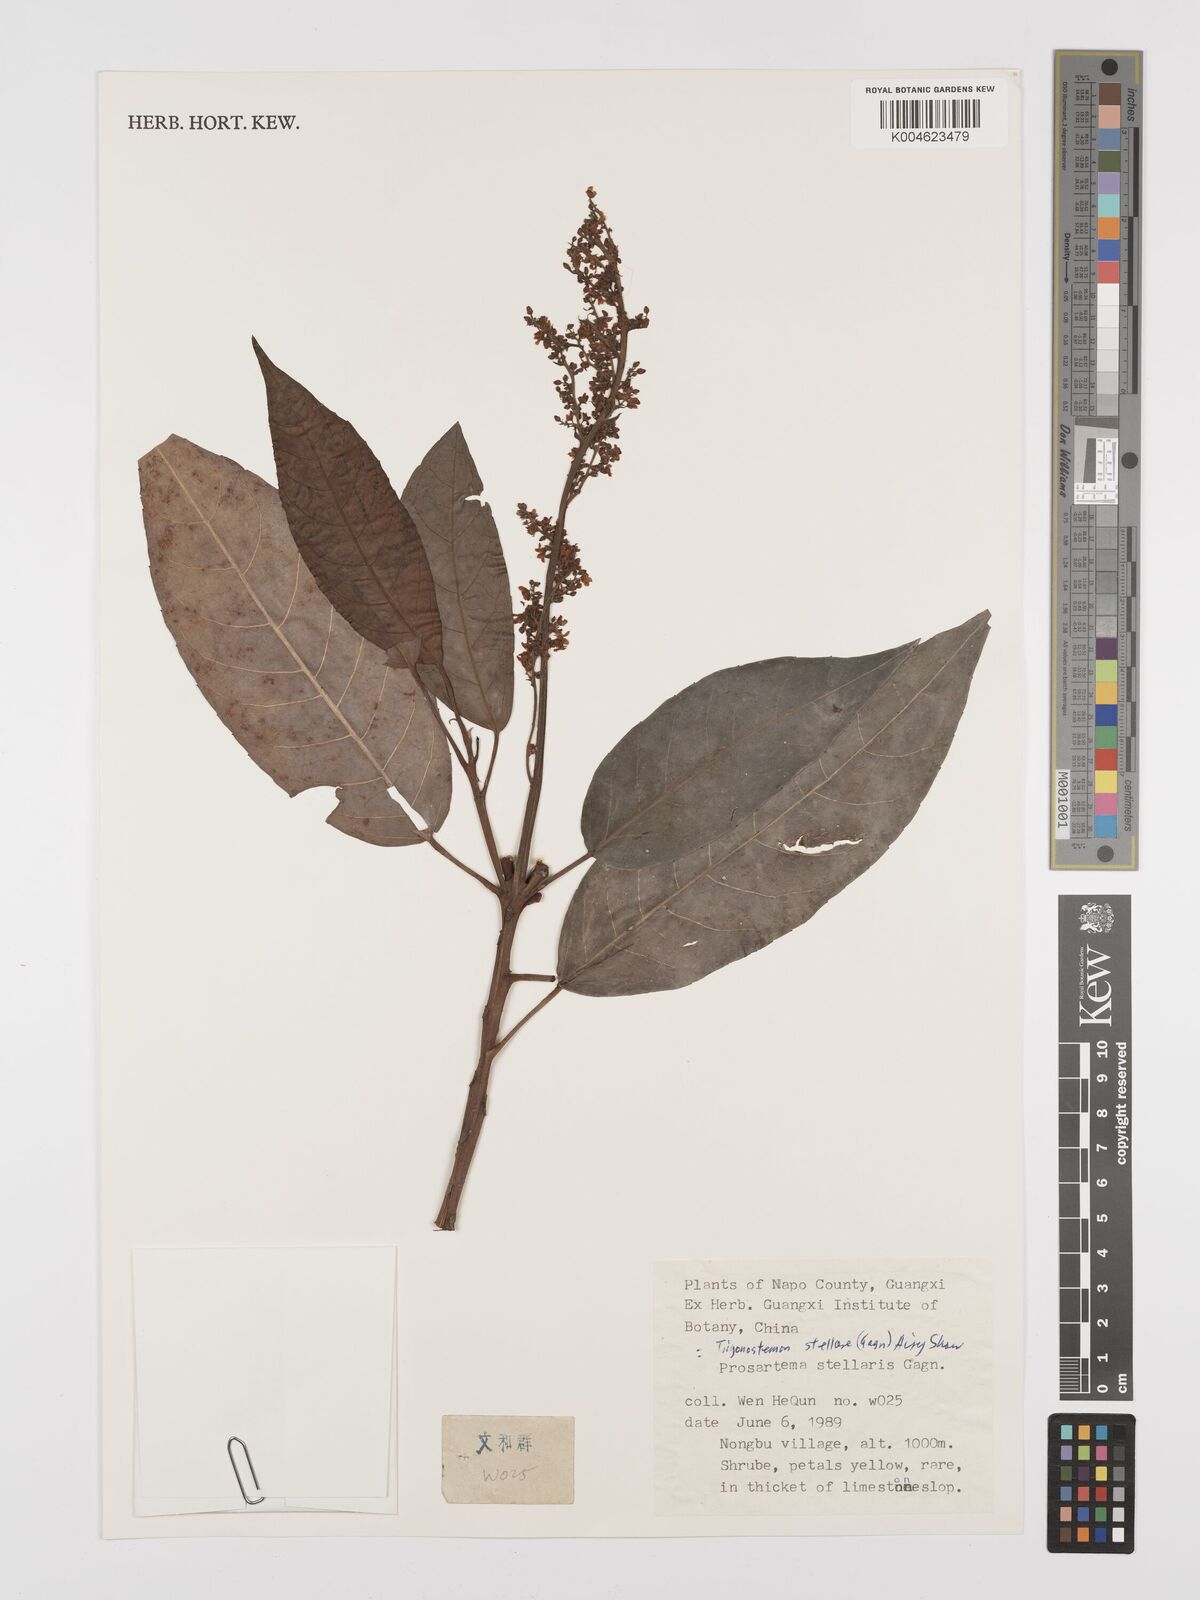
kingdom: Plantae
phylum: Tracheophyta
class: Magnoliopsida
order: Malpighiales
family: Euphorbiaceae
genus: Trigonostemon
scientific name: Trigonostemon philippinensis
